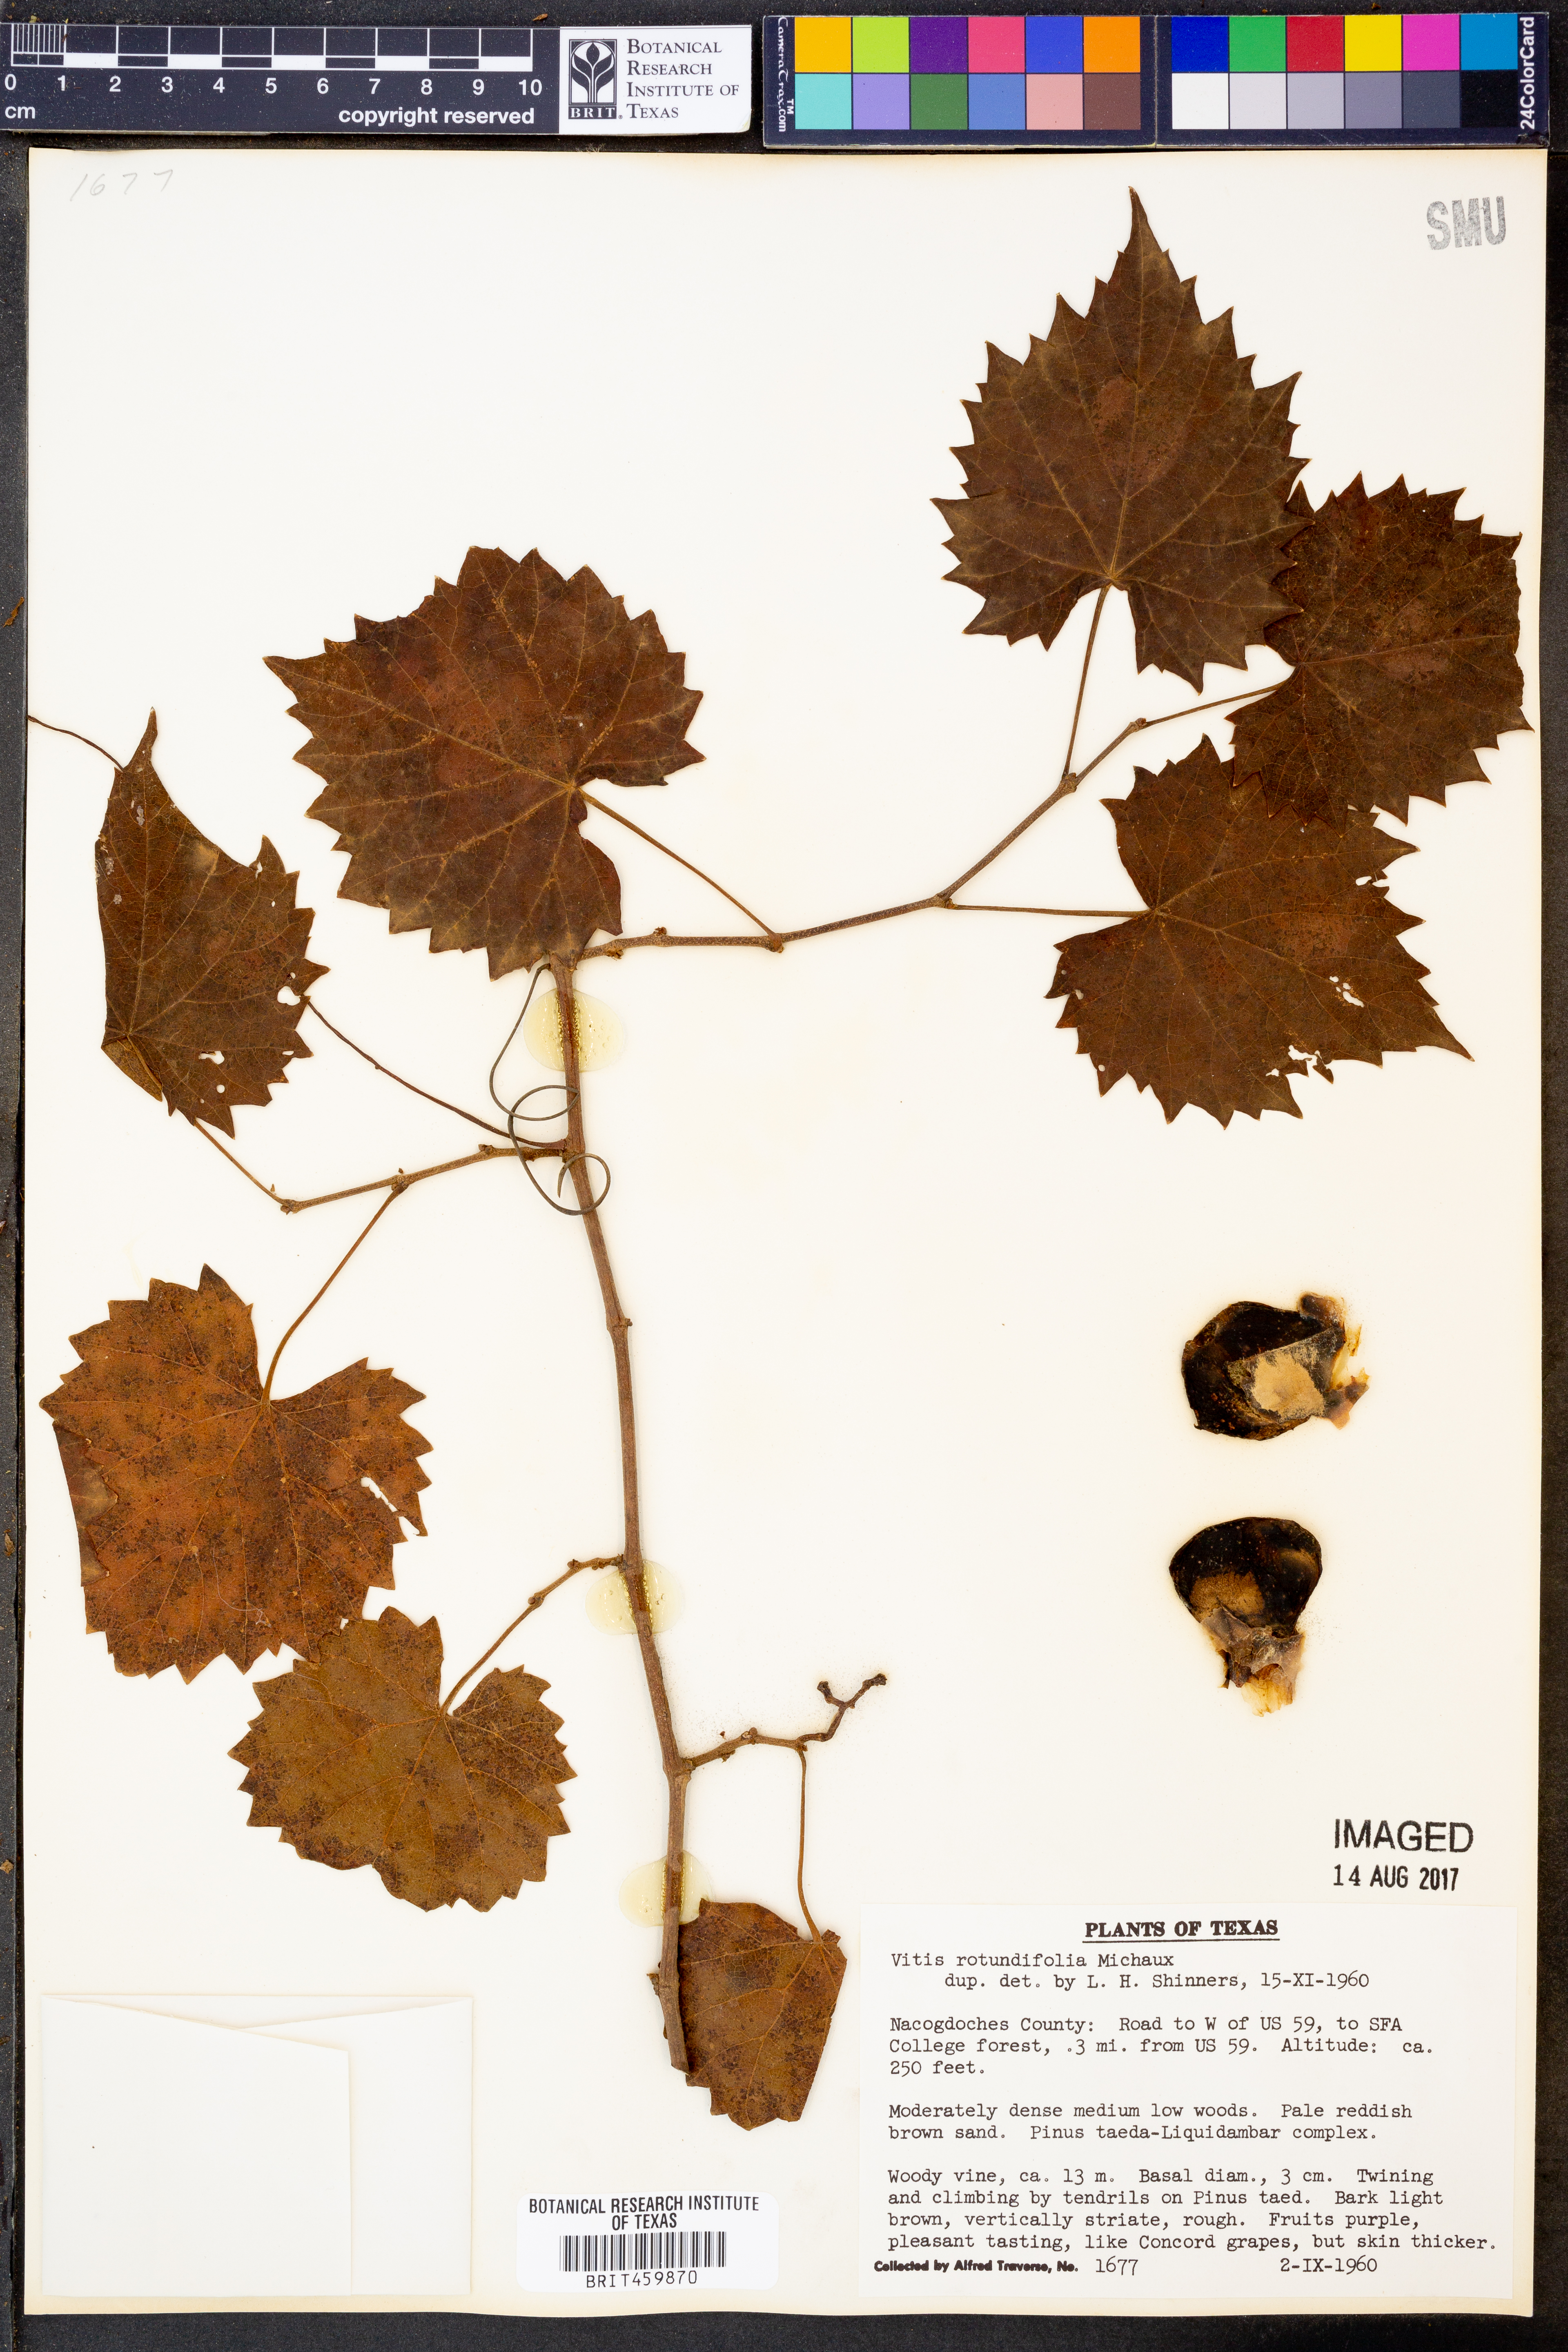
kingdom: Plantae
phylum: Tracheophyta
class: Magnoliopsida
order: Vitales
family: Vitaceae
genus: Vitis
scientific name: Vitis rotundifolia
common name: Muscadine grape
